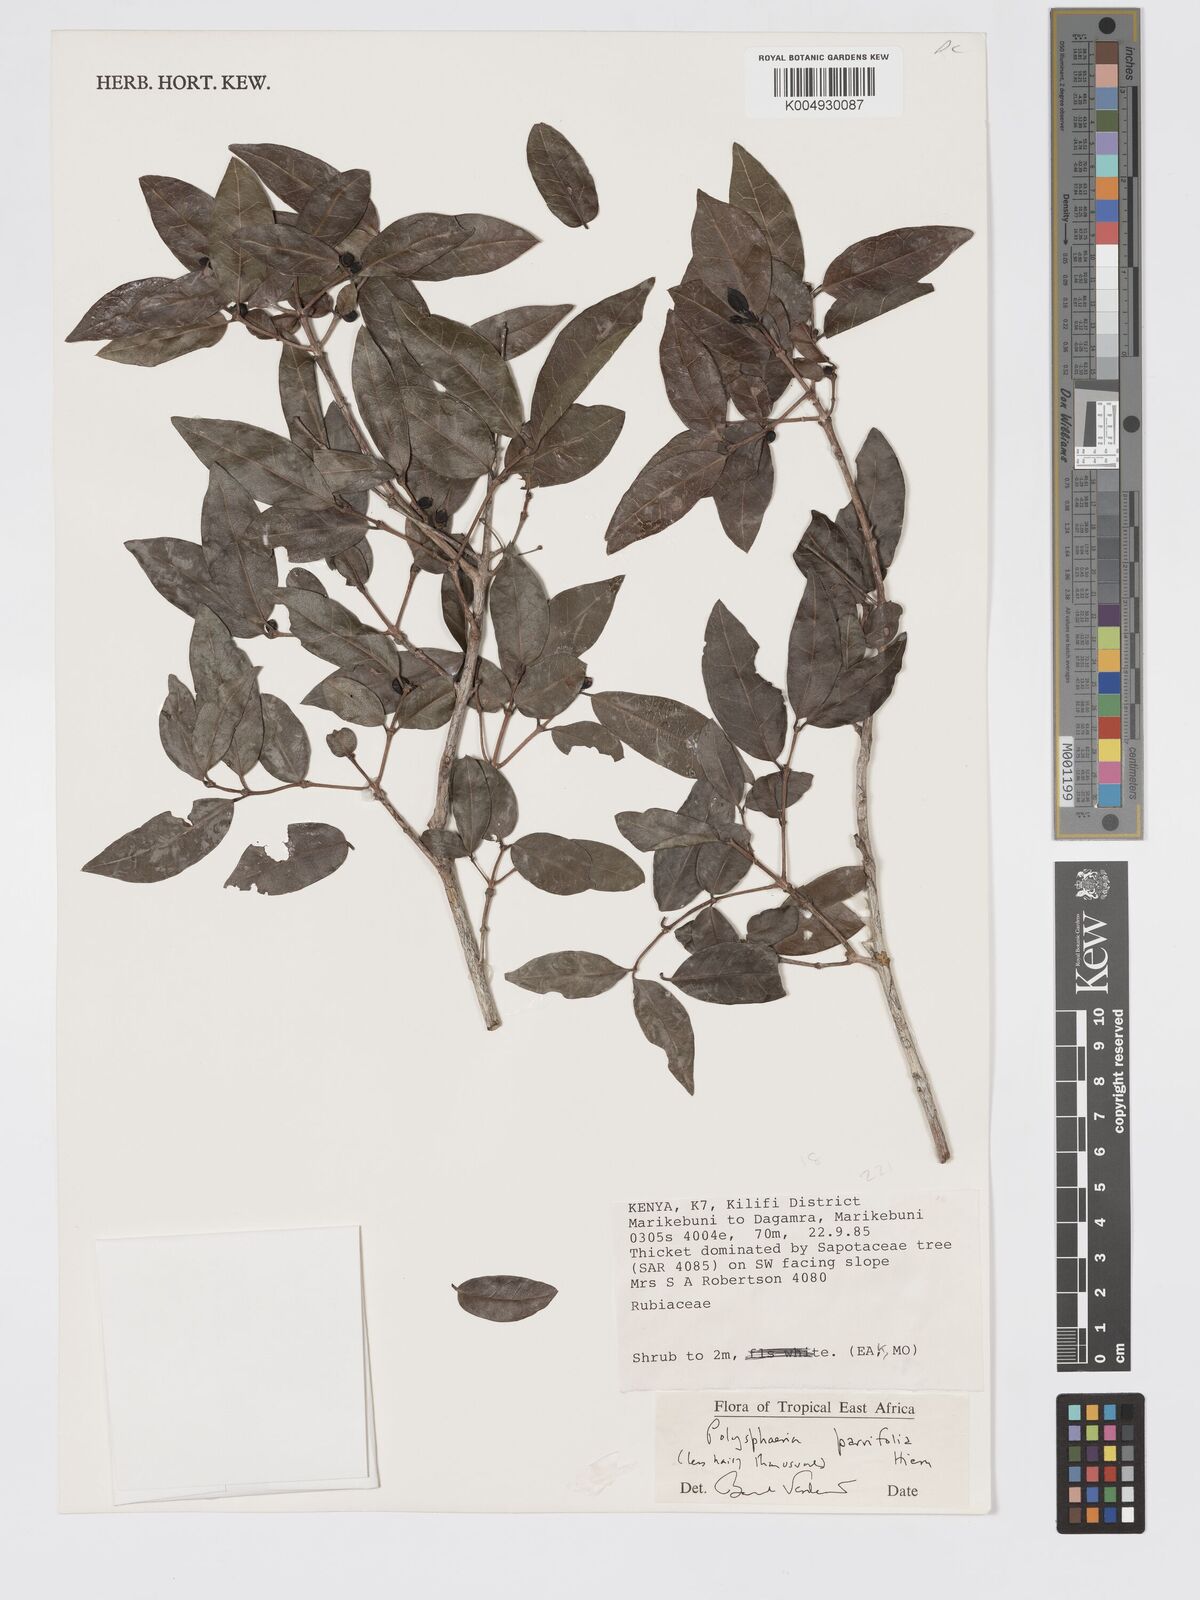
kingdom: Plantae
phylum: Tracheophyta
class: Magnoliopsida
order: Gentianales
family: Rubiaceae
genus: Polysphaeria
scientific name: Polysphaeria parvifolia
